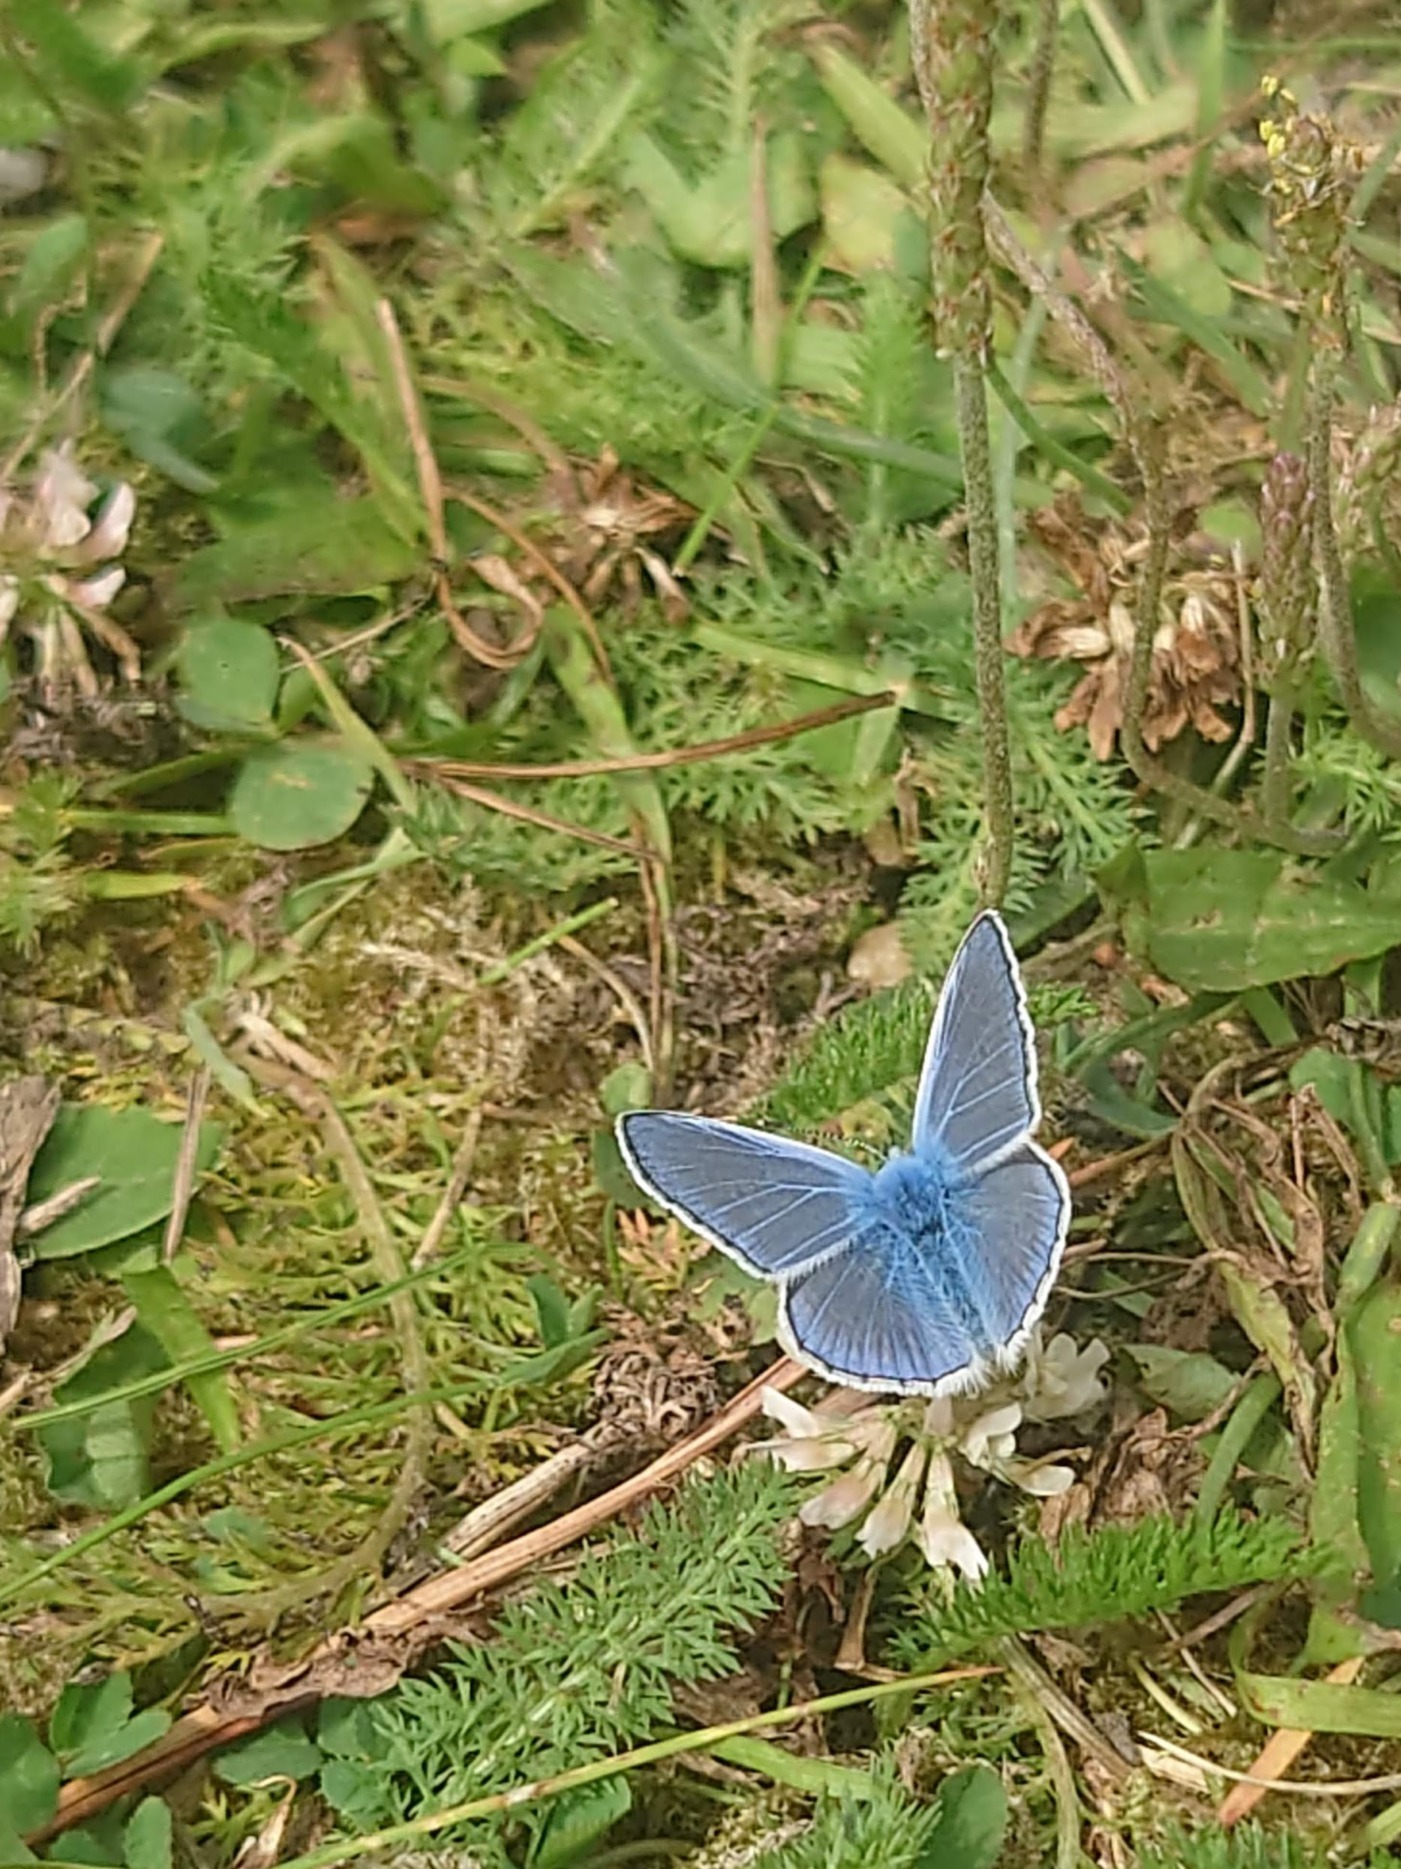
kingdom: Animalia
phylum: Arthropoda
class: Insecta
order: Lepidoptera
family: Lycaenidae
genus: Polyommatus
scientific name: Polyommatus icarus
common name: Almindelig blåfugl
